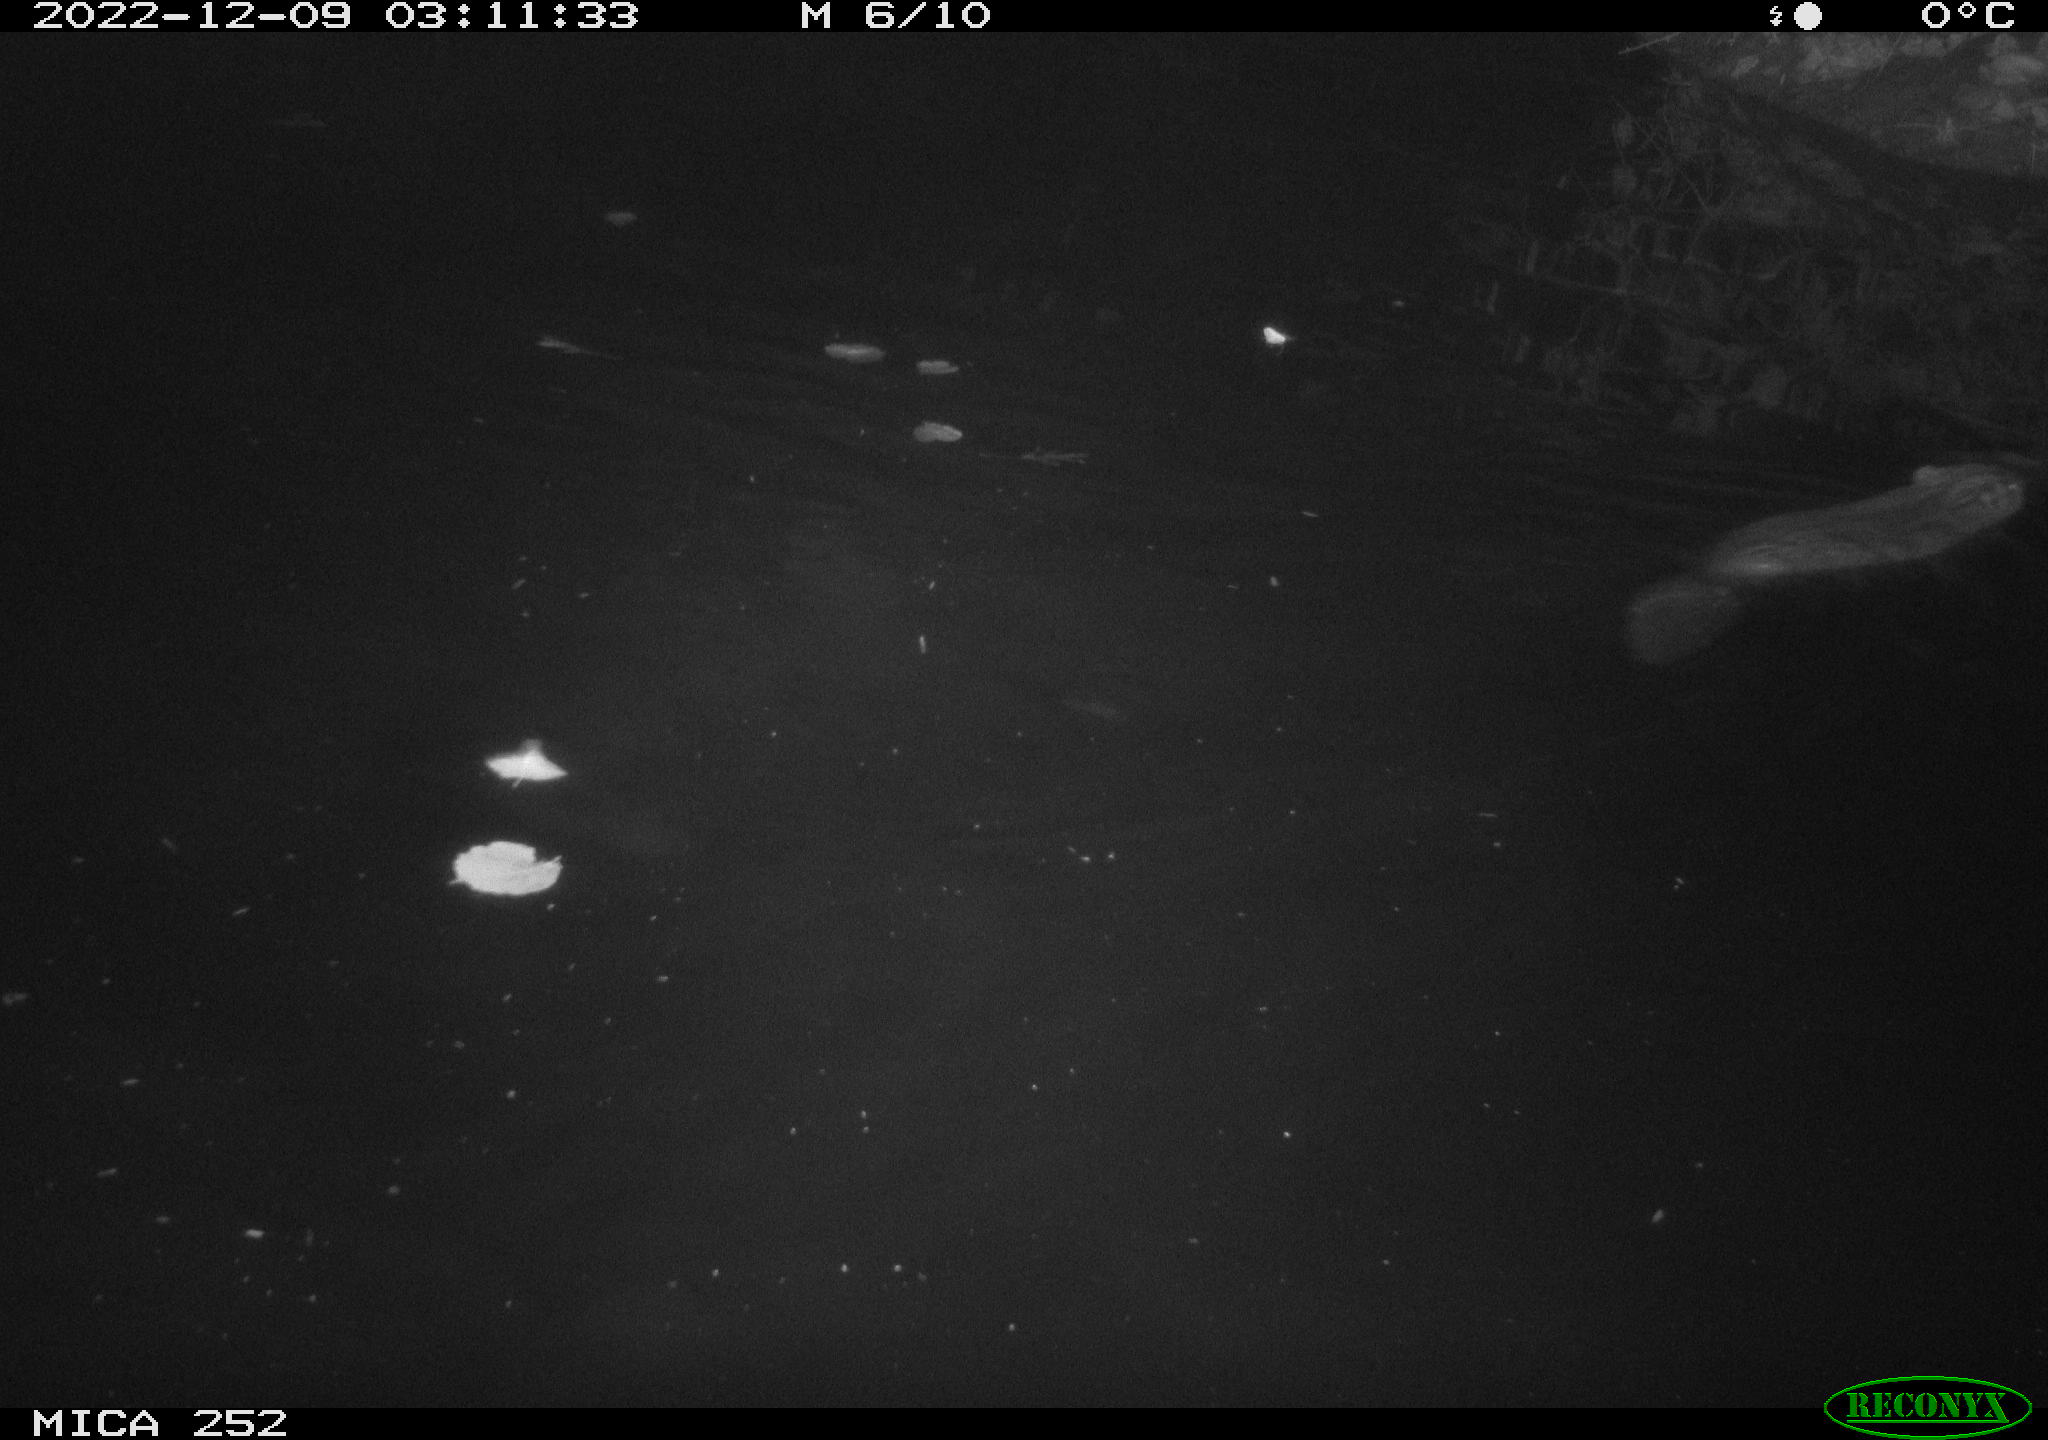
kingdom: Animalia
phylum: Chordata
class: Mammalia
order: Rodentia
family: Castoridae
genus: Castor
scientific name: Castor fiber
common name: Eurasian beaver
